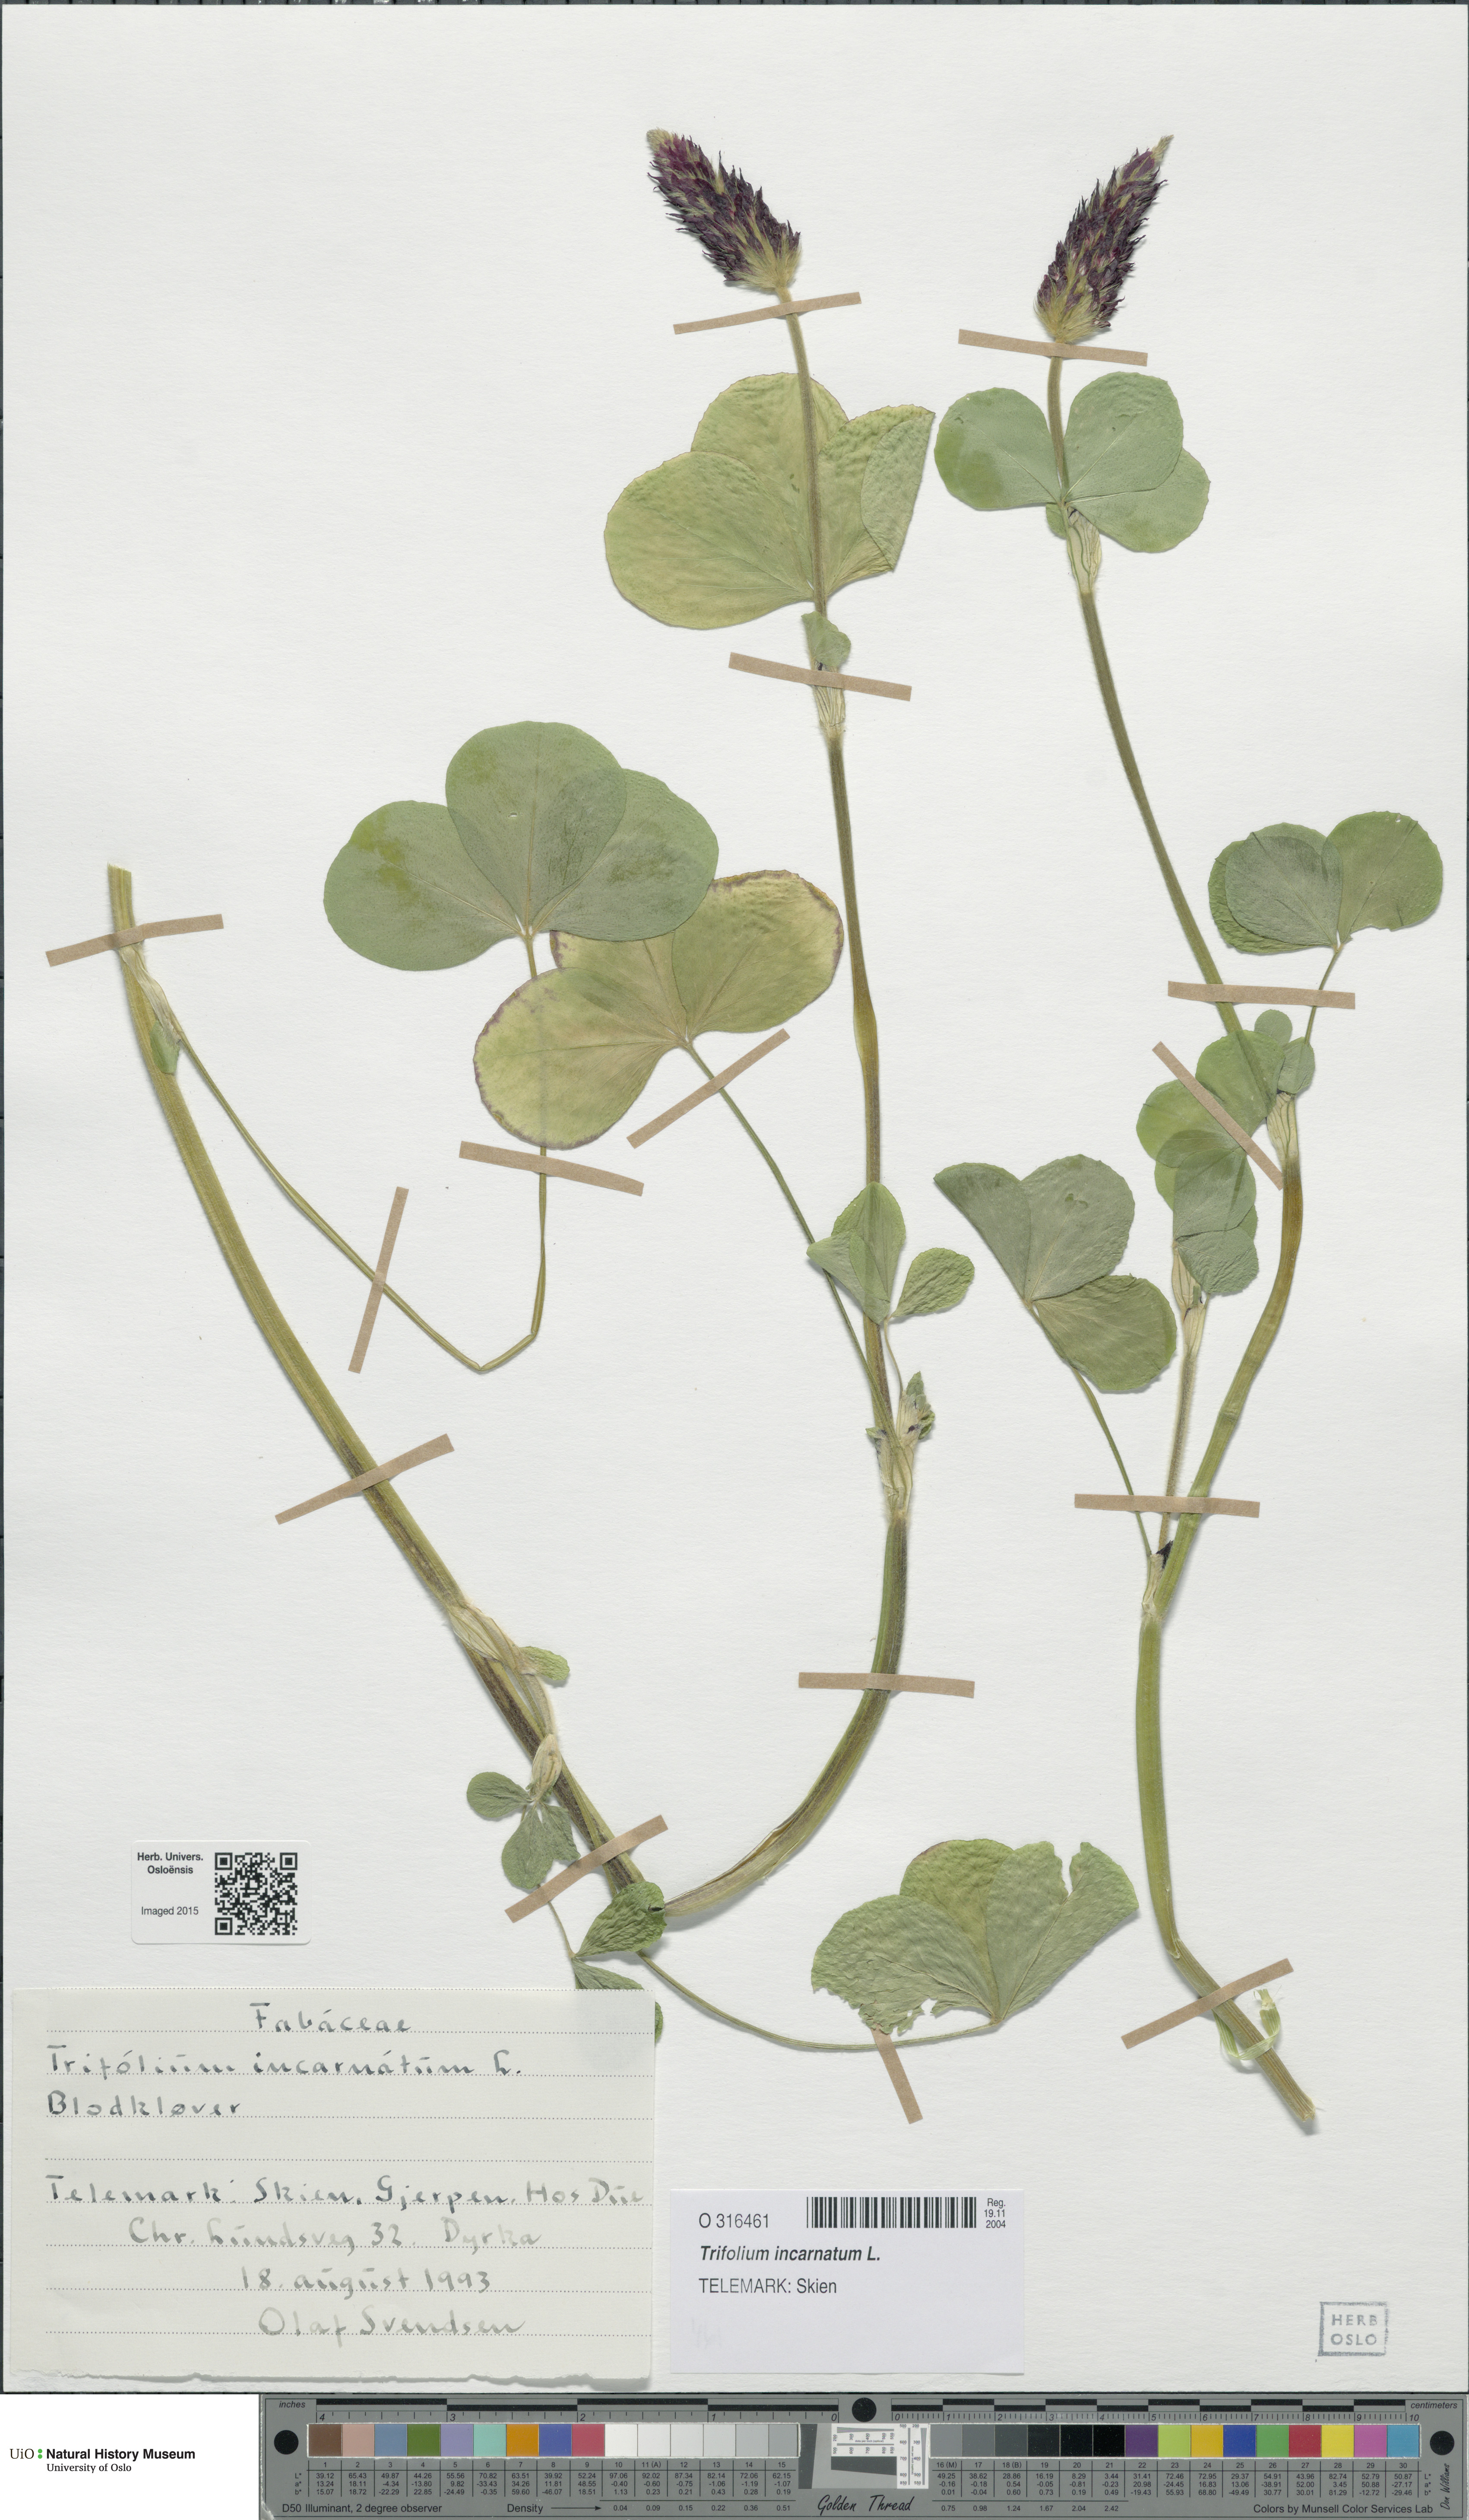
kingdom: Plantae
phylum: Tracheophyta
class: Magnoliopsida
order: Fabales
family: Fabaceae
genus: Trifolium
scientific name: Trifolium incarnatum
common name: Crimson clover
